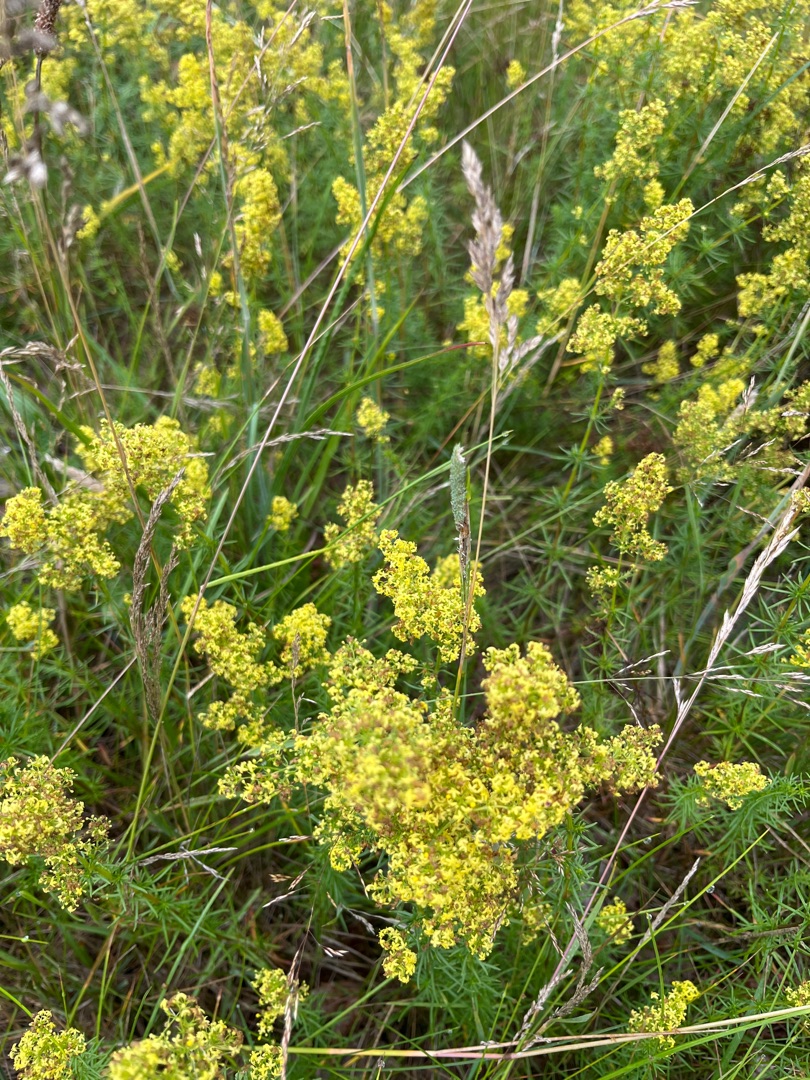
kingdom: Plantae
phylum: Tracheophyta
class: Magnoliopsida
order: Gentianales
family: Rubiaceae
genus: Galium
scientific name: Galium verum
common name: Gul snerre
